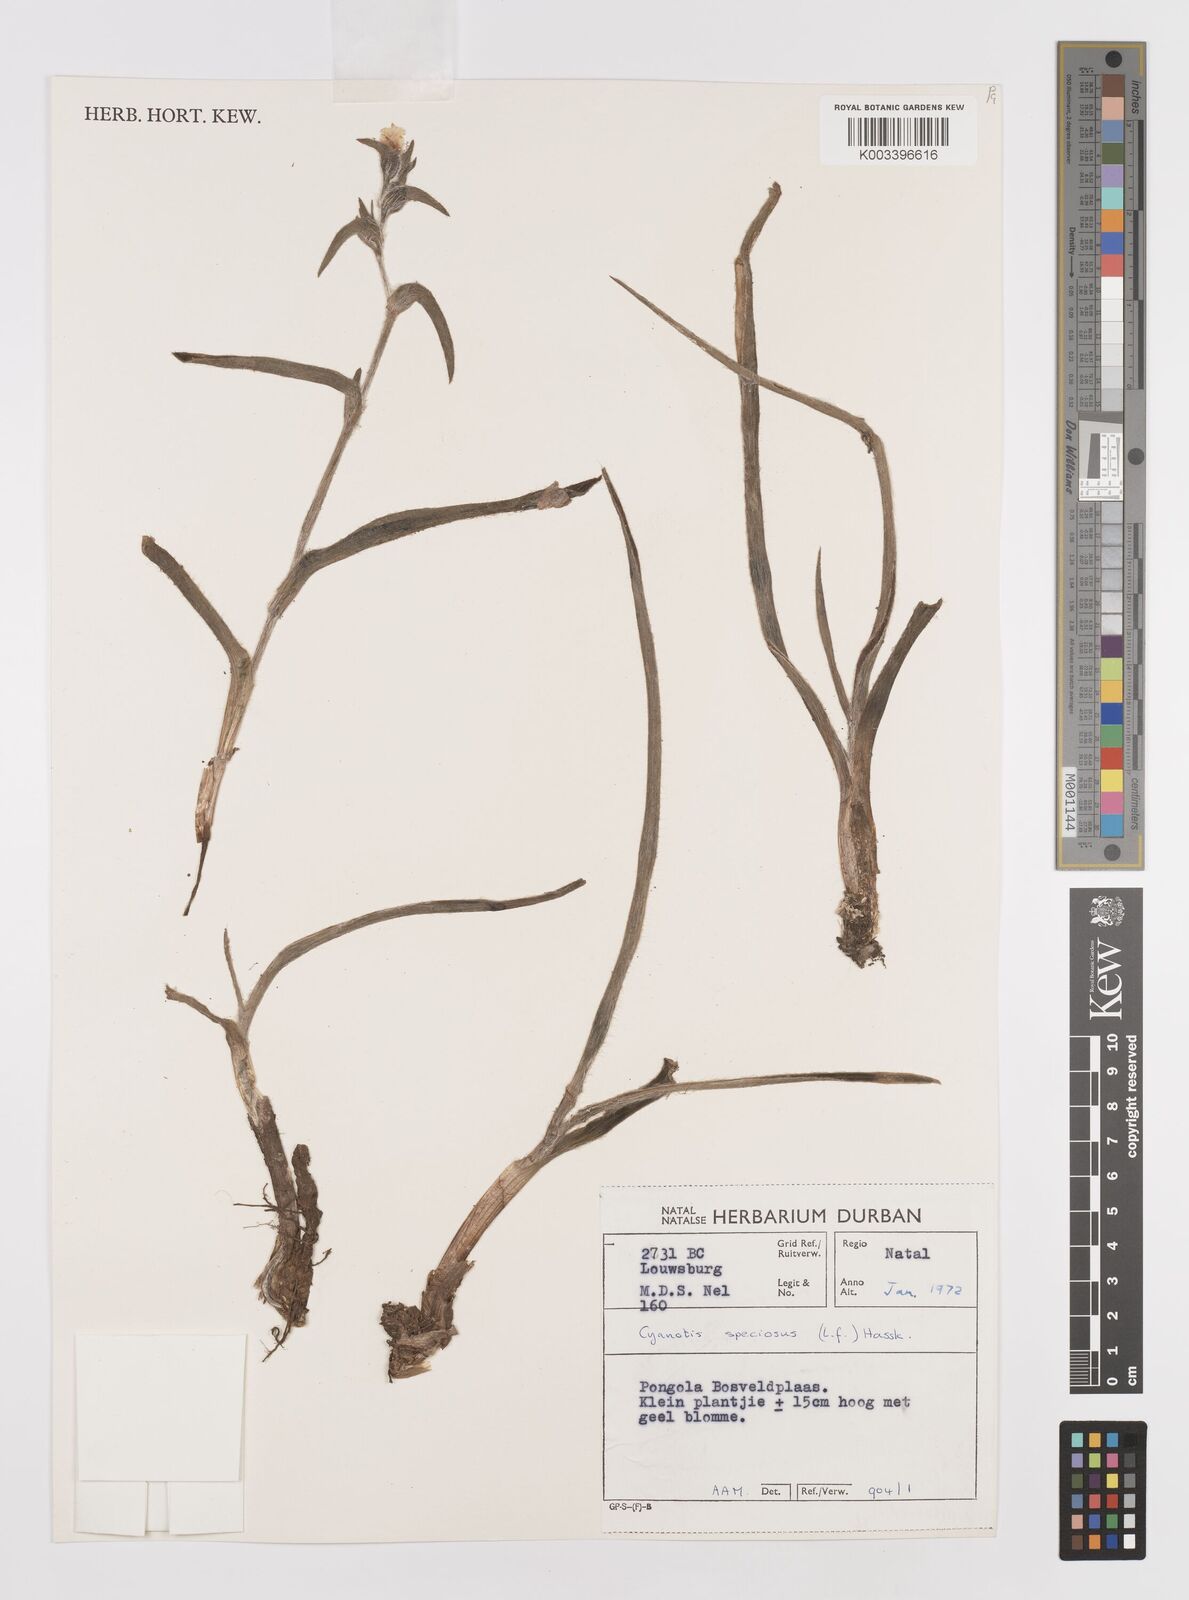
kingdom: Plantae
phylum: Tracheophyta
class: Liliopsida
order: Commelinales
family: Commelinaceae
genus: Cyanotis
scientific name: Cyanotis speciosa
